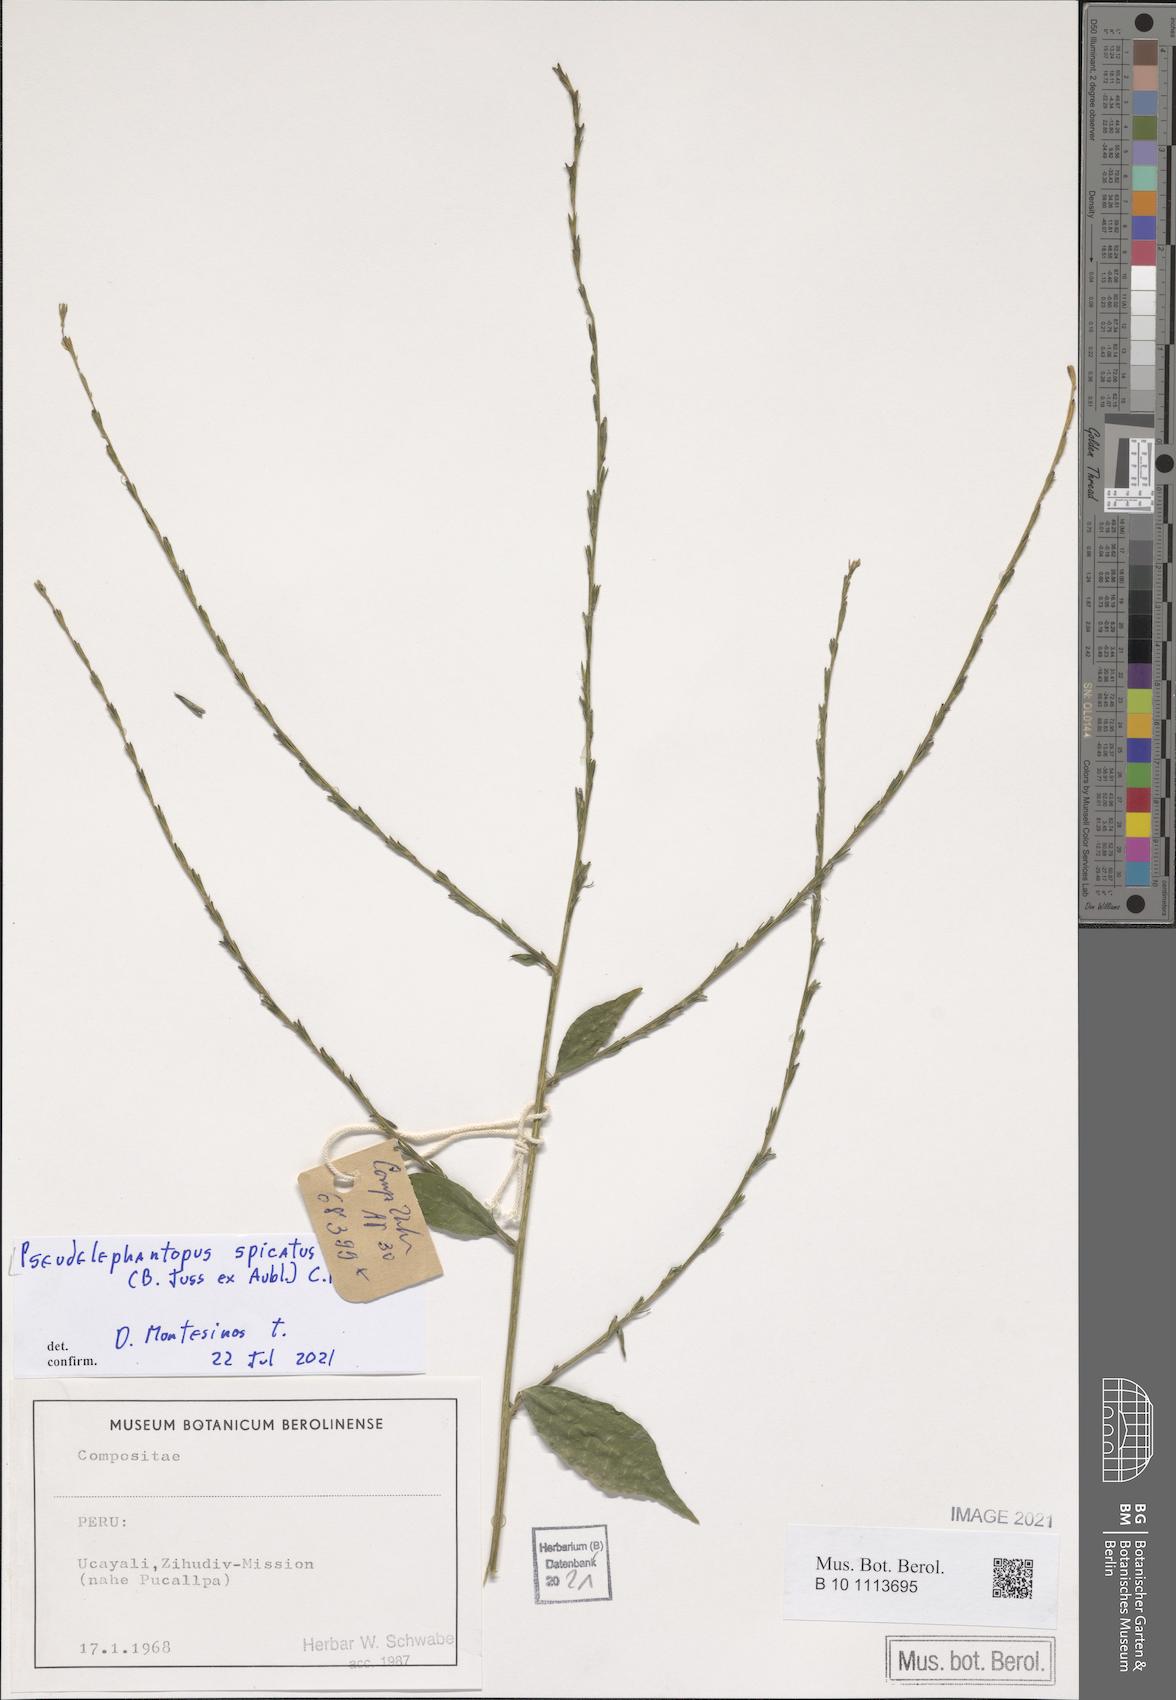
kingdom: Plantae
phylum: Tracheophyta
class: Magnoliopsida
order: Asterales
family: Asteraceae
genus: Pseudelephantopus
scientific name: Pseudelephantopus spicatus
